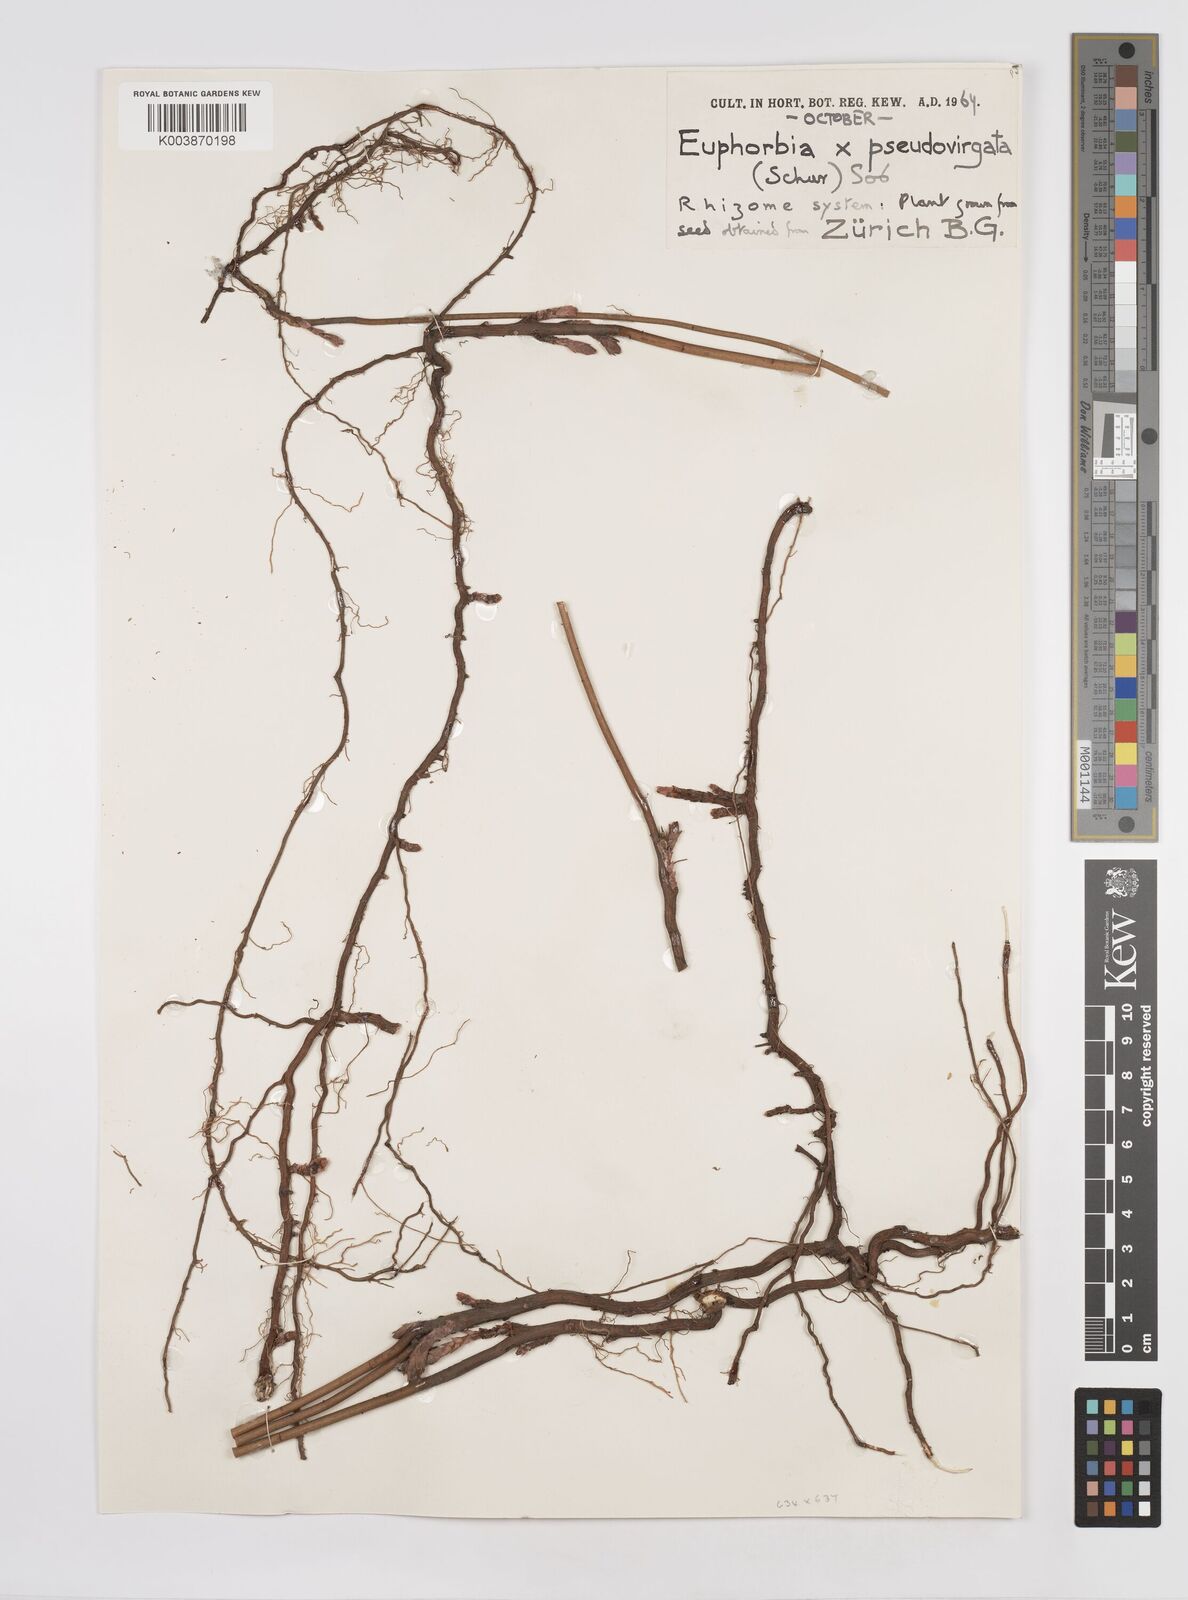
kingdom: Plantae
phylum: Tracheophyta
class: Magnoliopsida
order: Malpighiales
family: Euphorbiaceae
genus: Euphorbia
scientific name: Euphorbia virgata
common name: Leafy spurge
